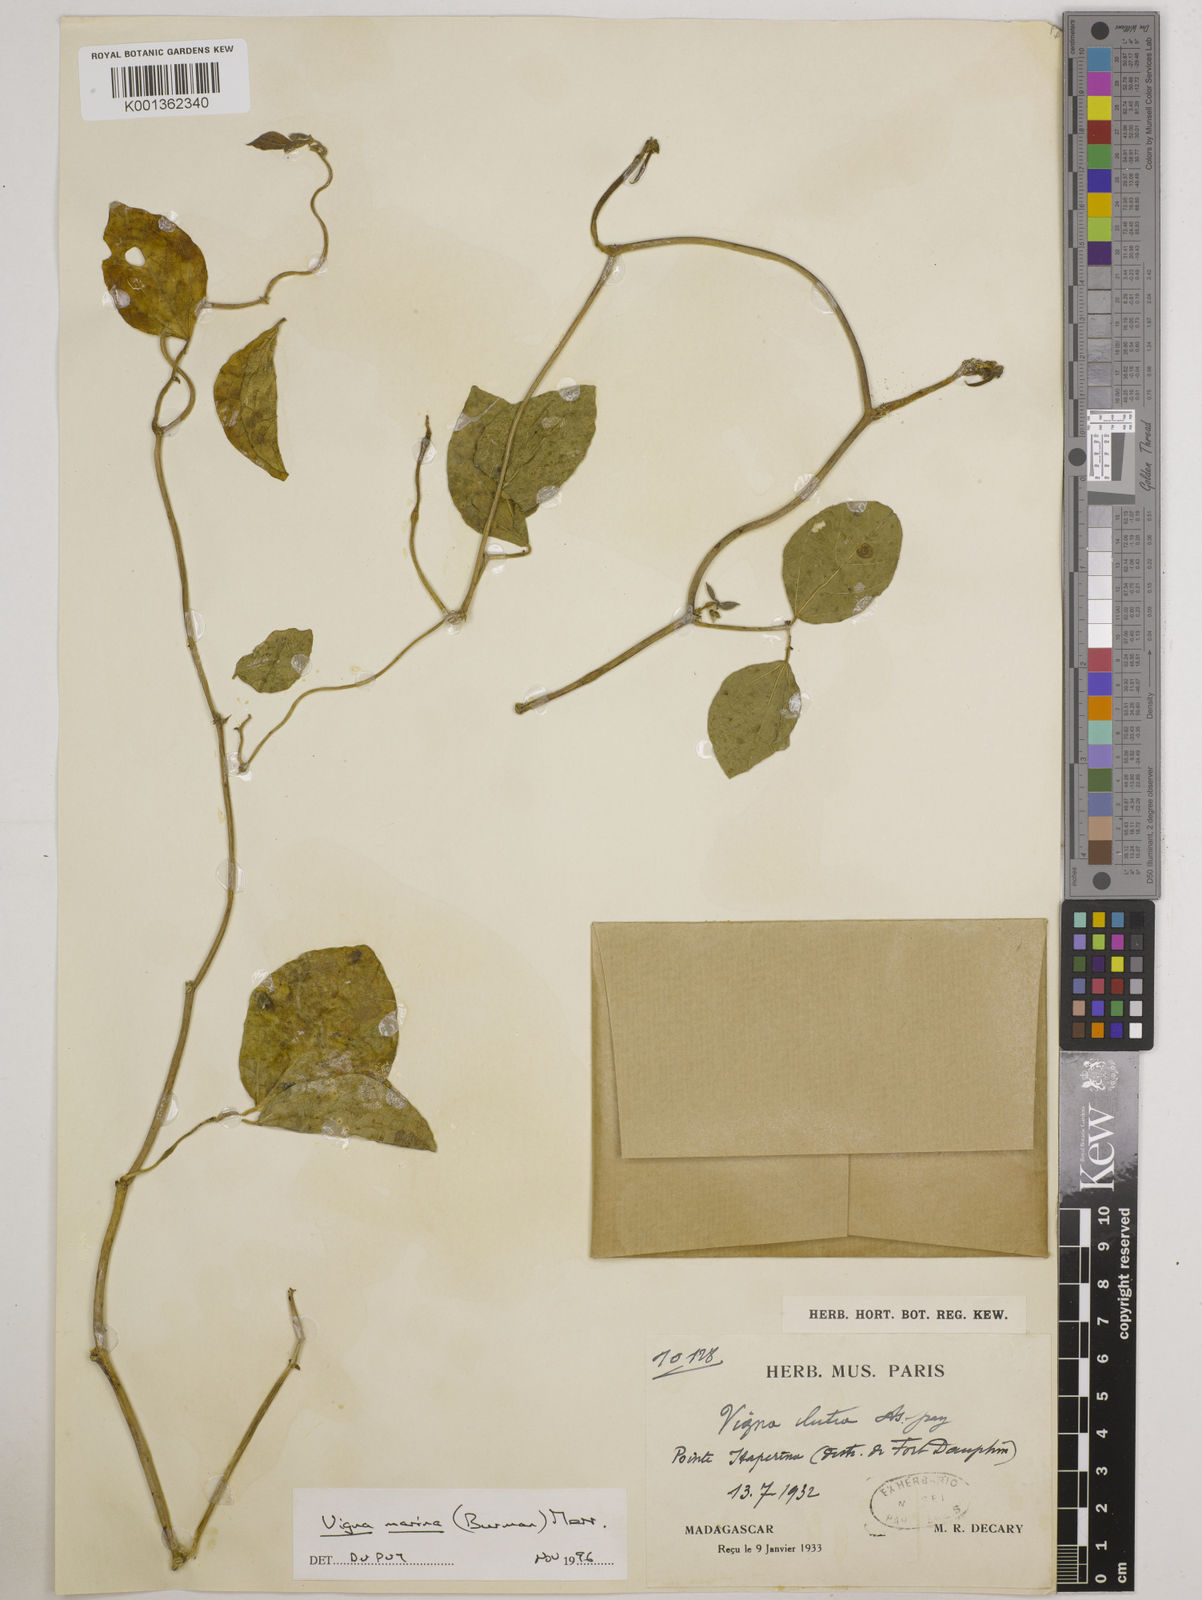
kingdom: Plantae
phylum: Tracheophyta
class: Magnoliopsida
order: Fabales
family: Fabaceae
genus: Vigna
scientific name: Vigna marina
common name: Dune-bean
